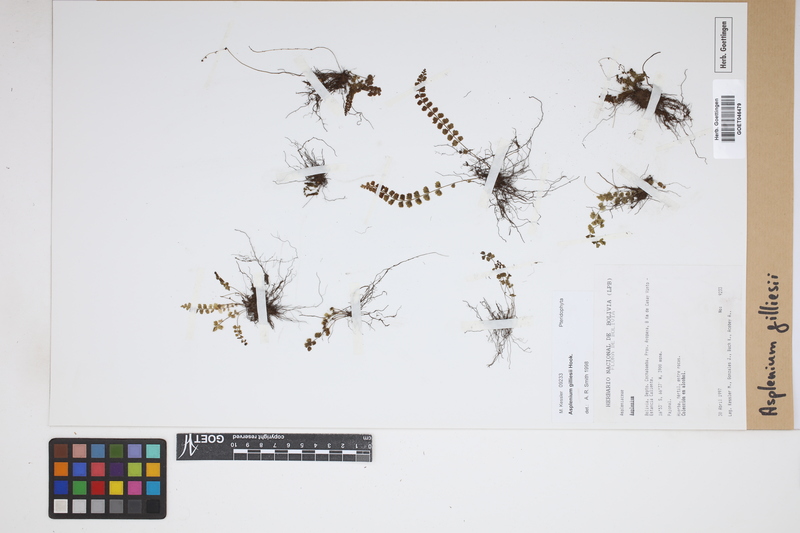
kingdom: Plantae
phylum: Tracheophyta
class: Polypodiopsida
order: Polypodiales
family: Aspleniaceae
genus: Asplenium
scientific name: Asplenium gilliesii
